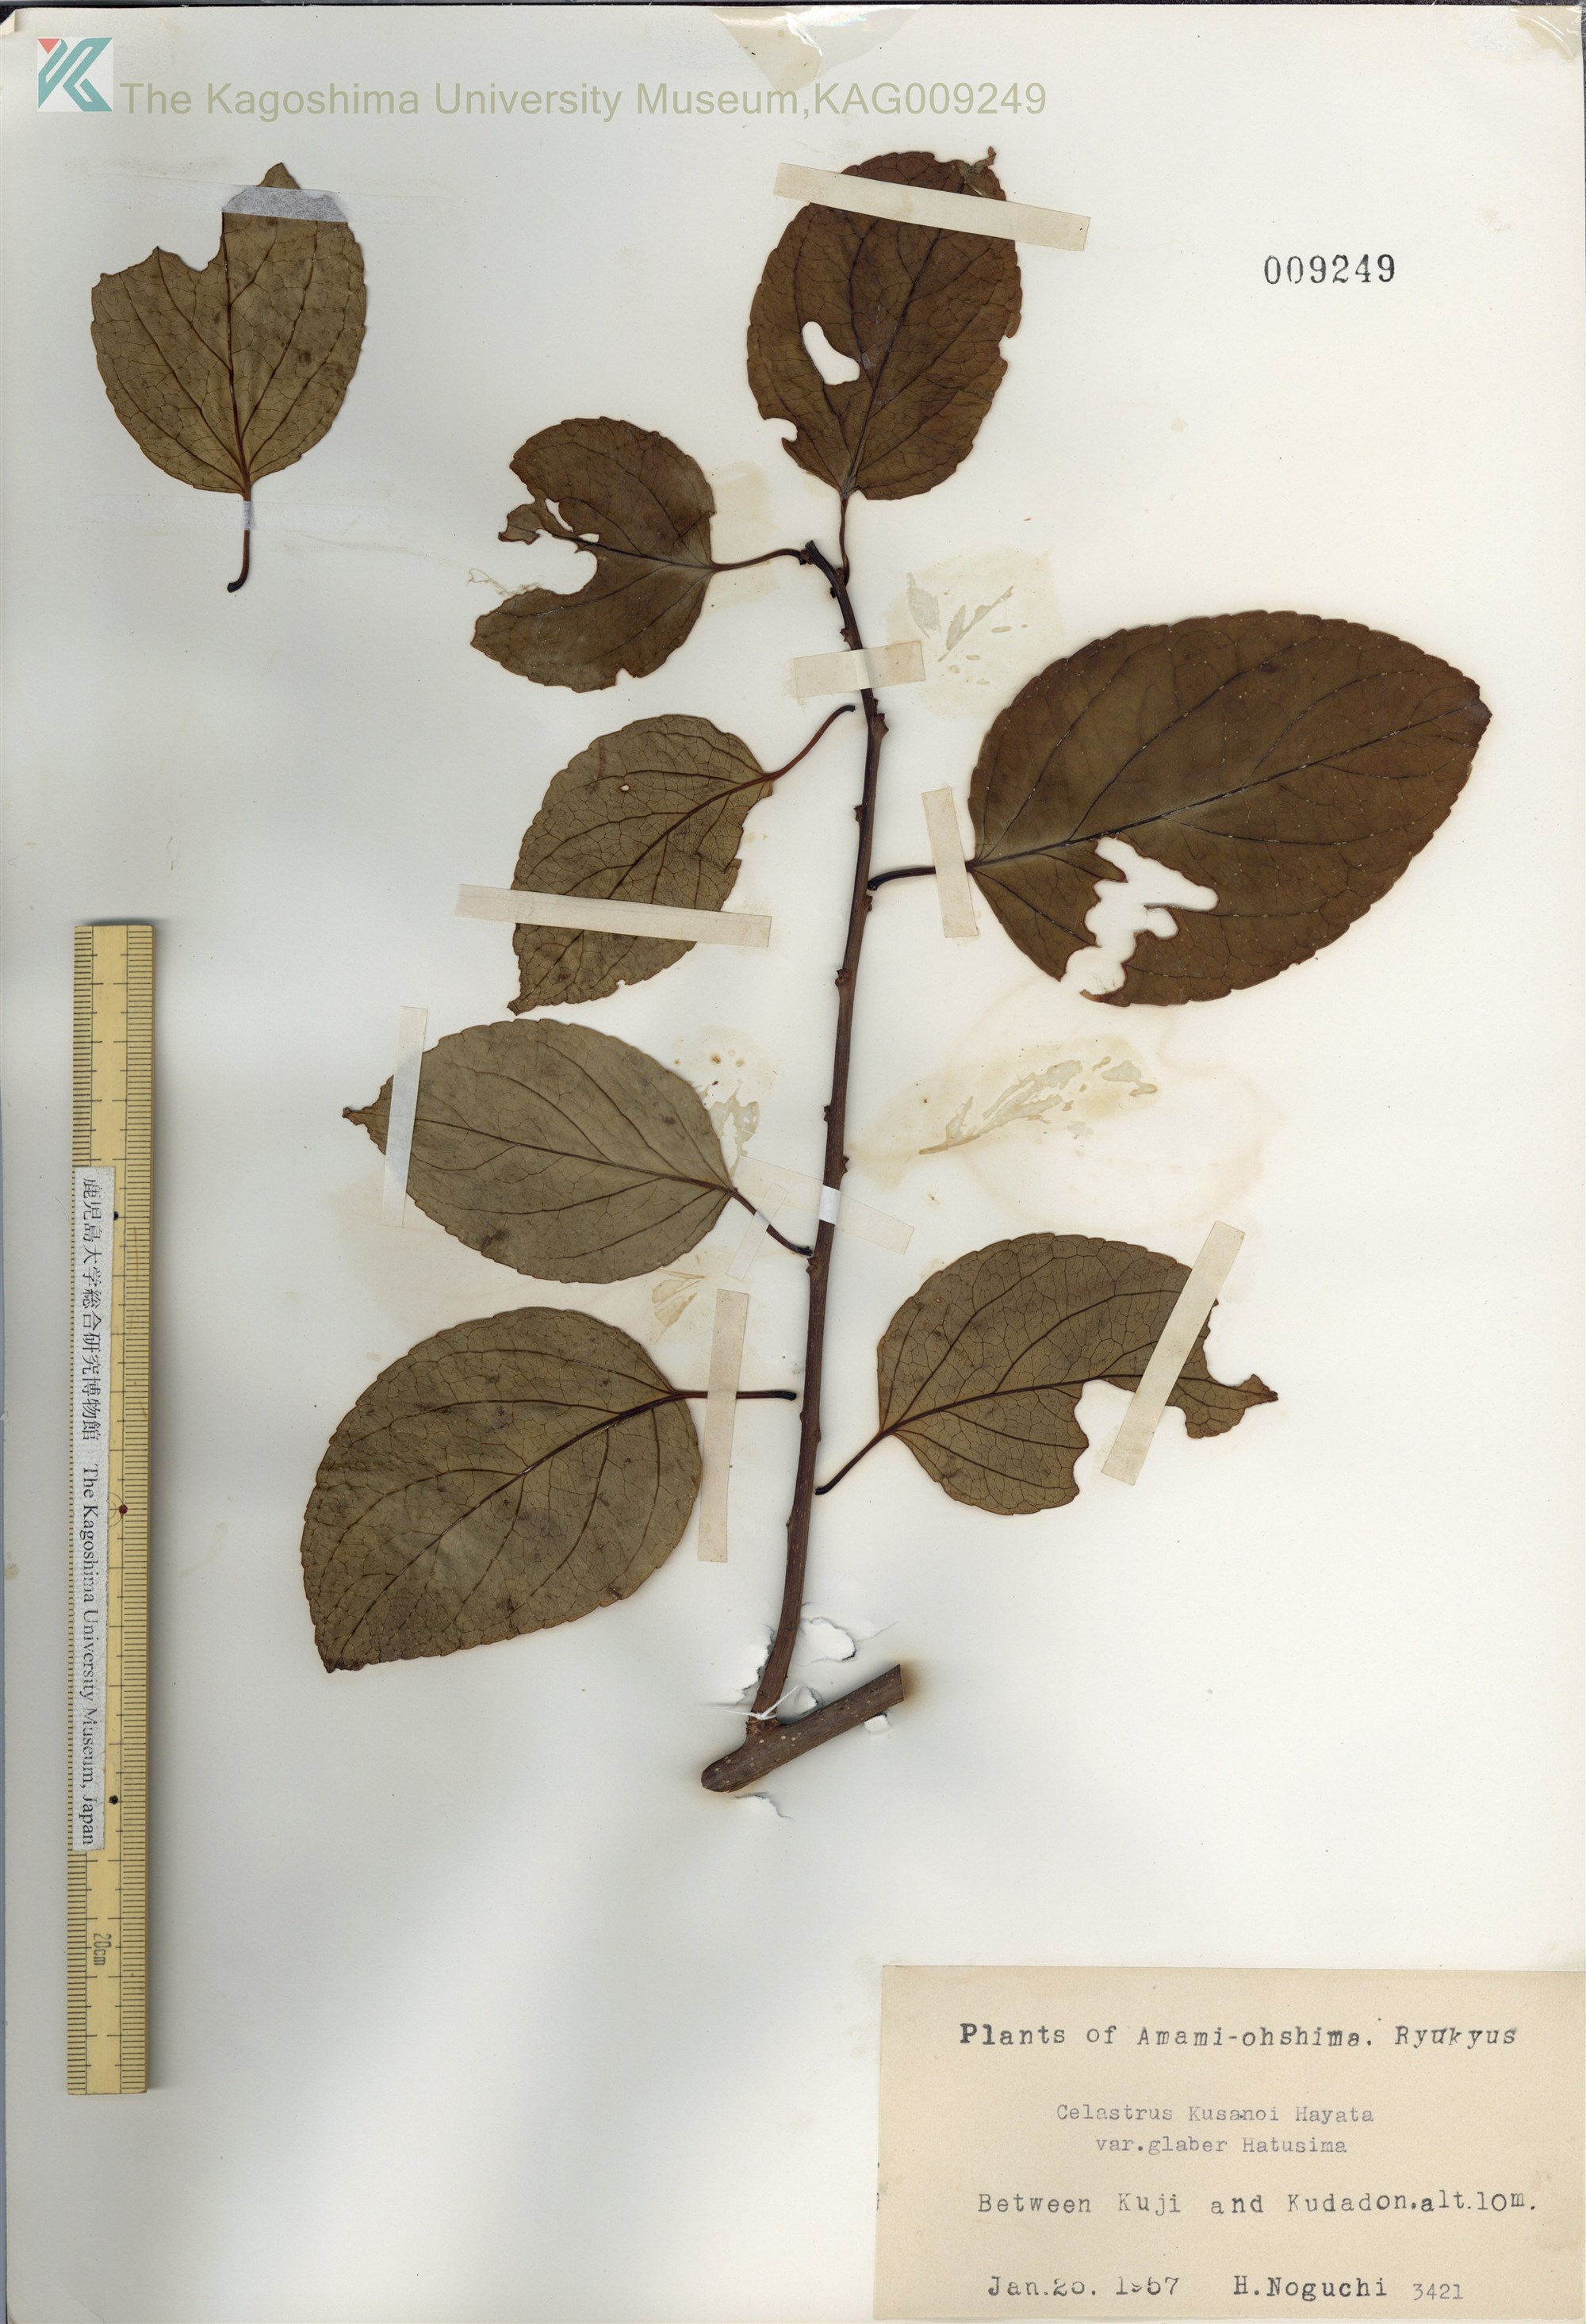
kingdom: Plantae
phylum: Tracheophyta
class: Magnoliopsida
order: Celastrales
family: Celastraceae
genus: Celastrus
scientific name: Celastrus hypoleucus
